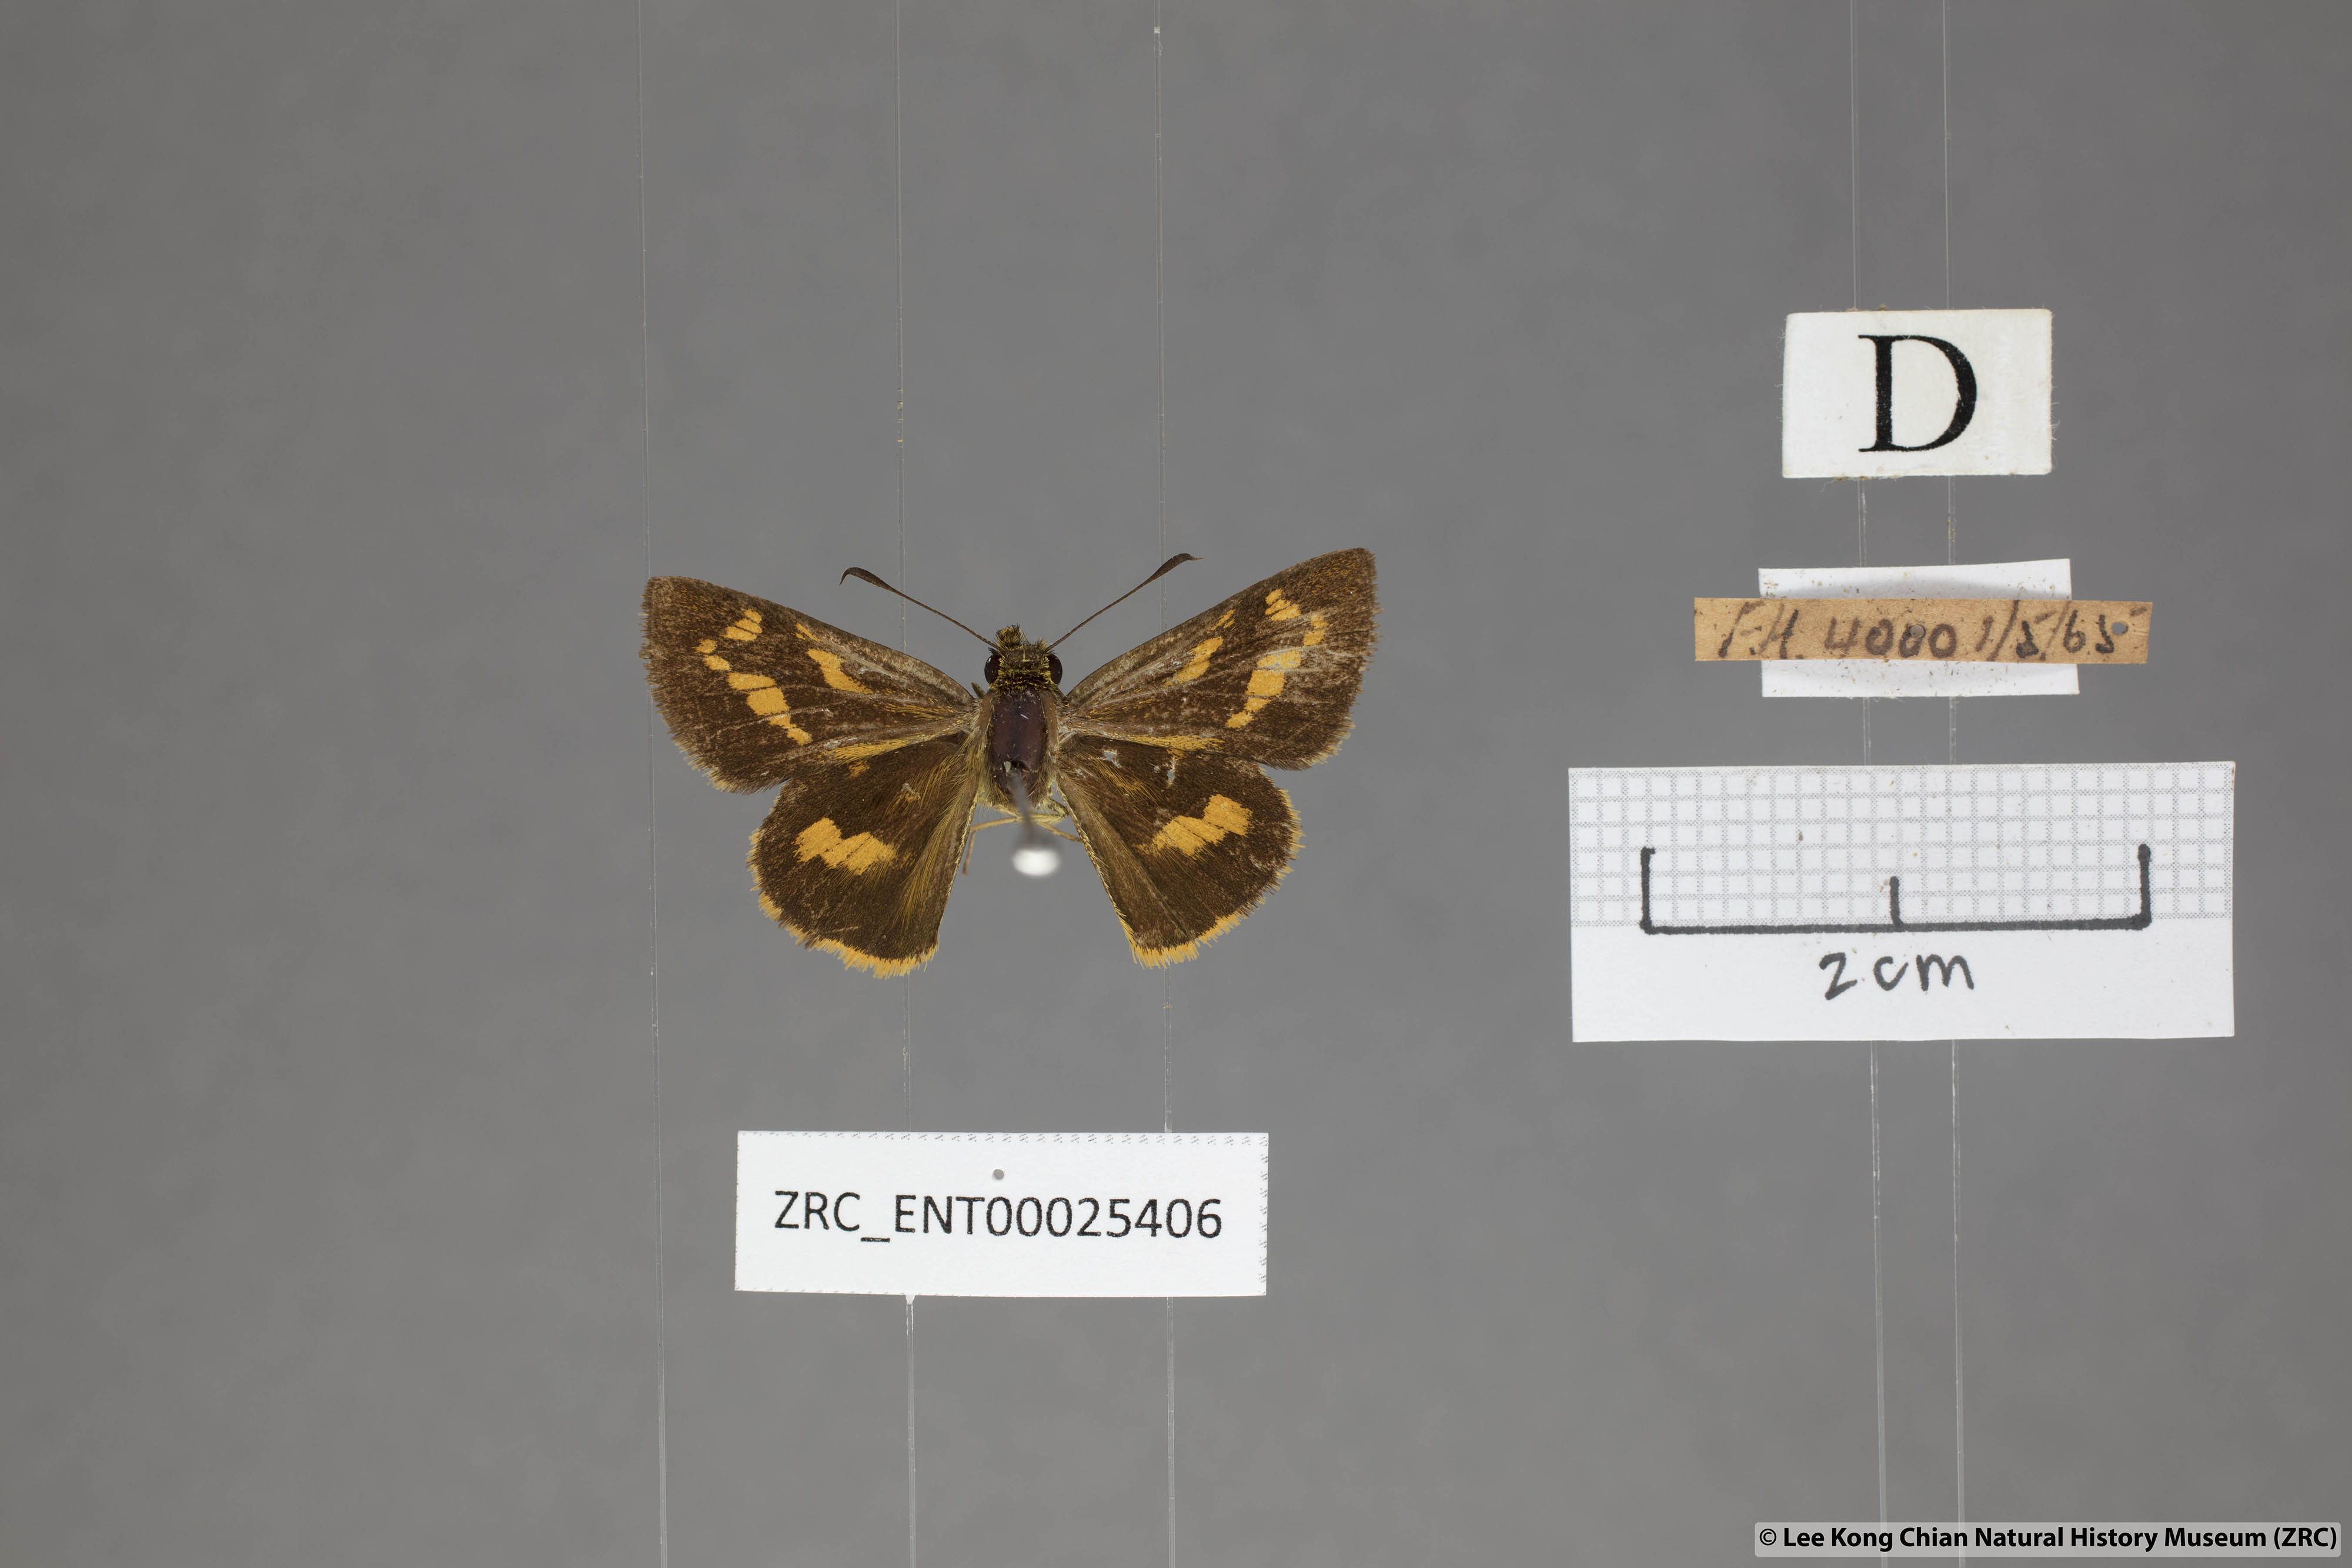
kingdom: Animalia
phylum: Arthropoda
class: Insecta
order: Lepidoptera
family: Hesperiidae
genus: Potanthus
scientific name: Potanthus lydia
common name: Lydia dart
